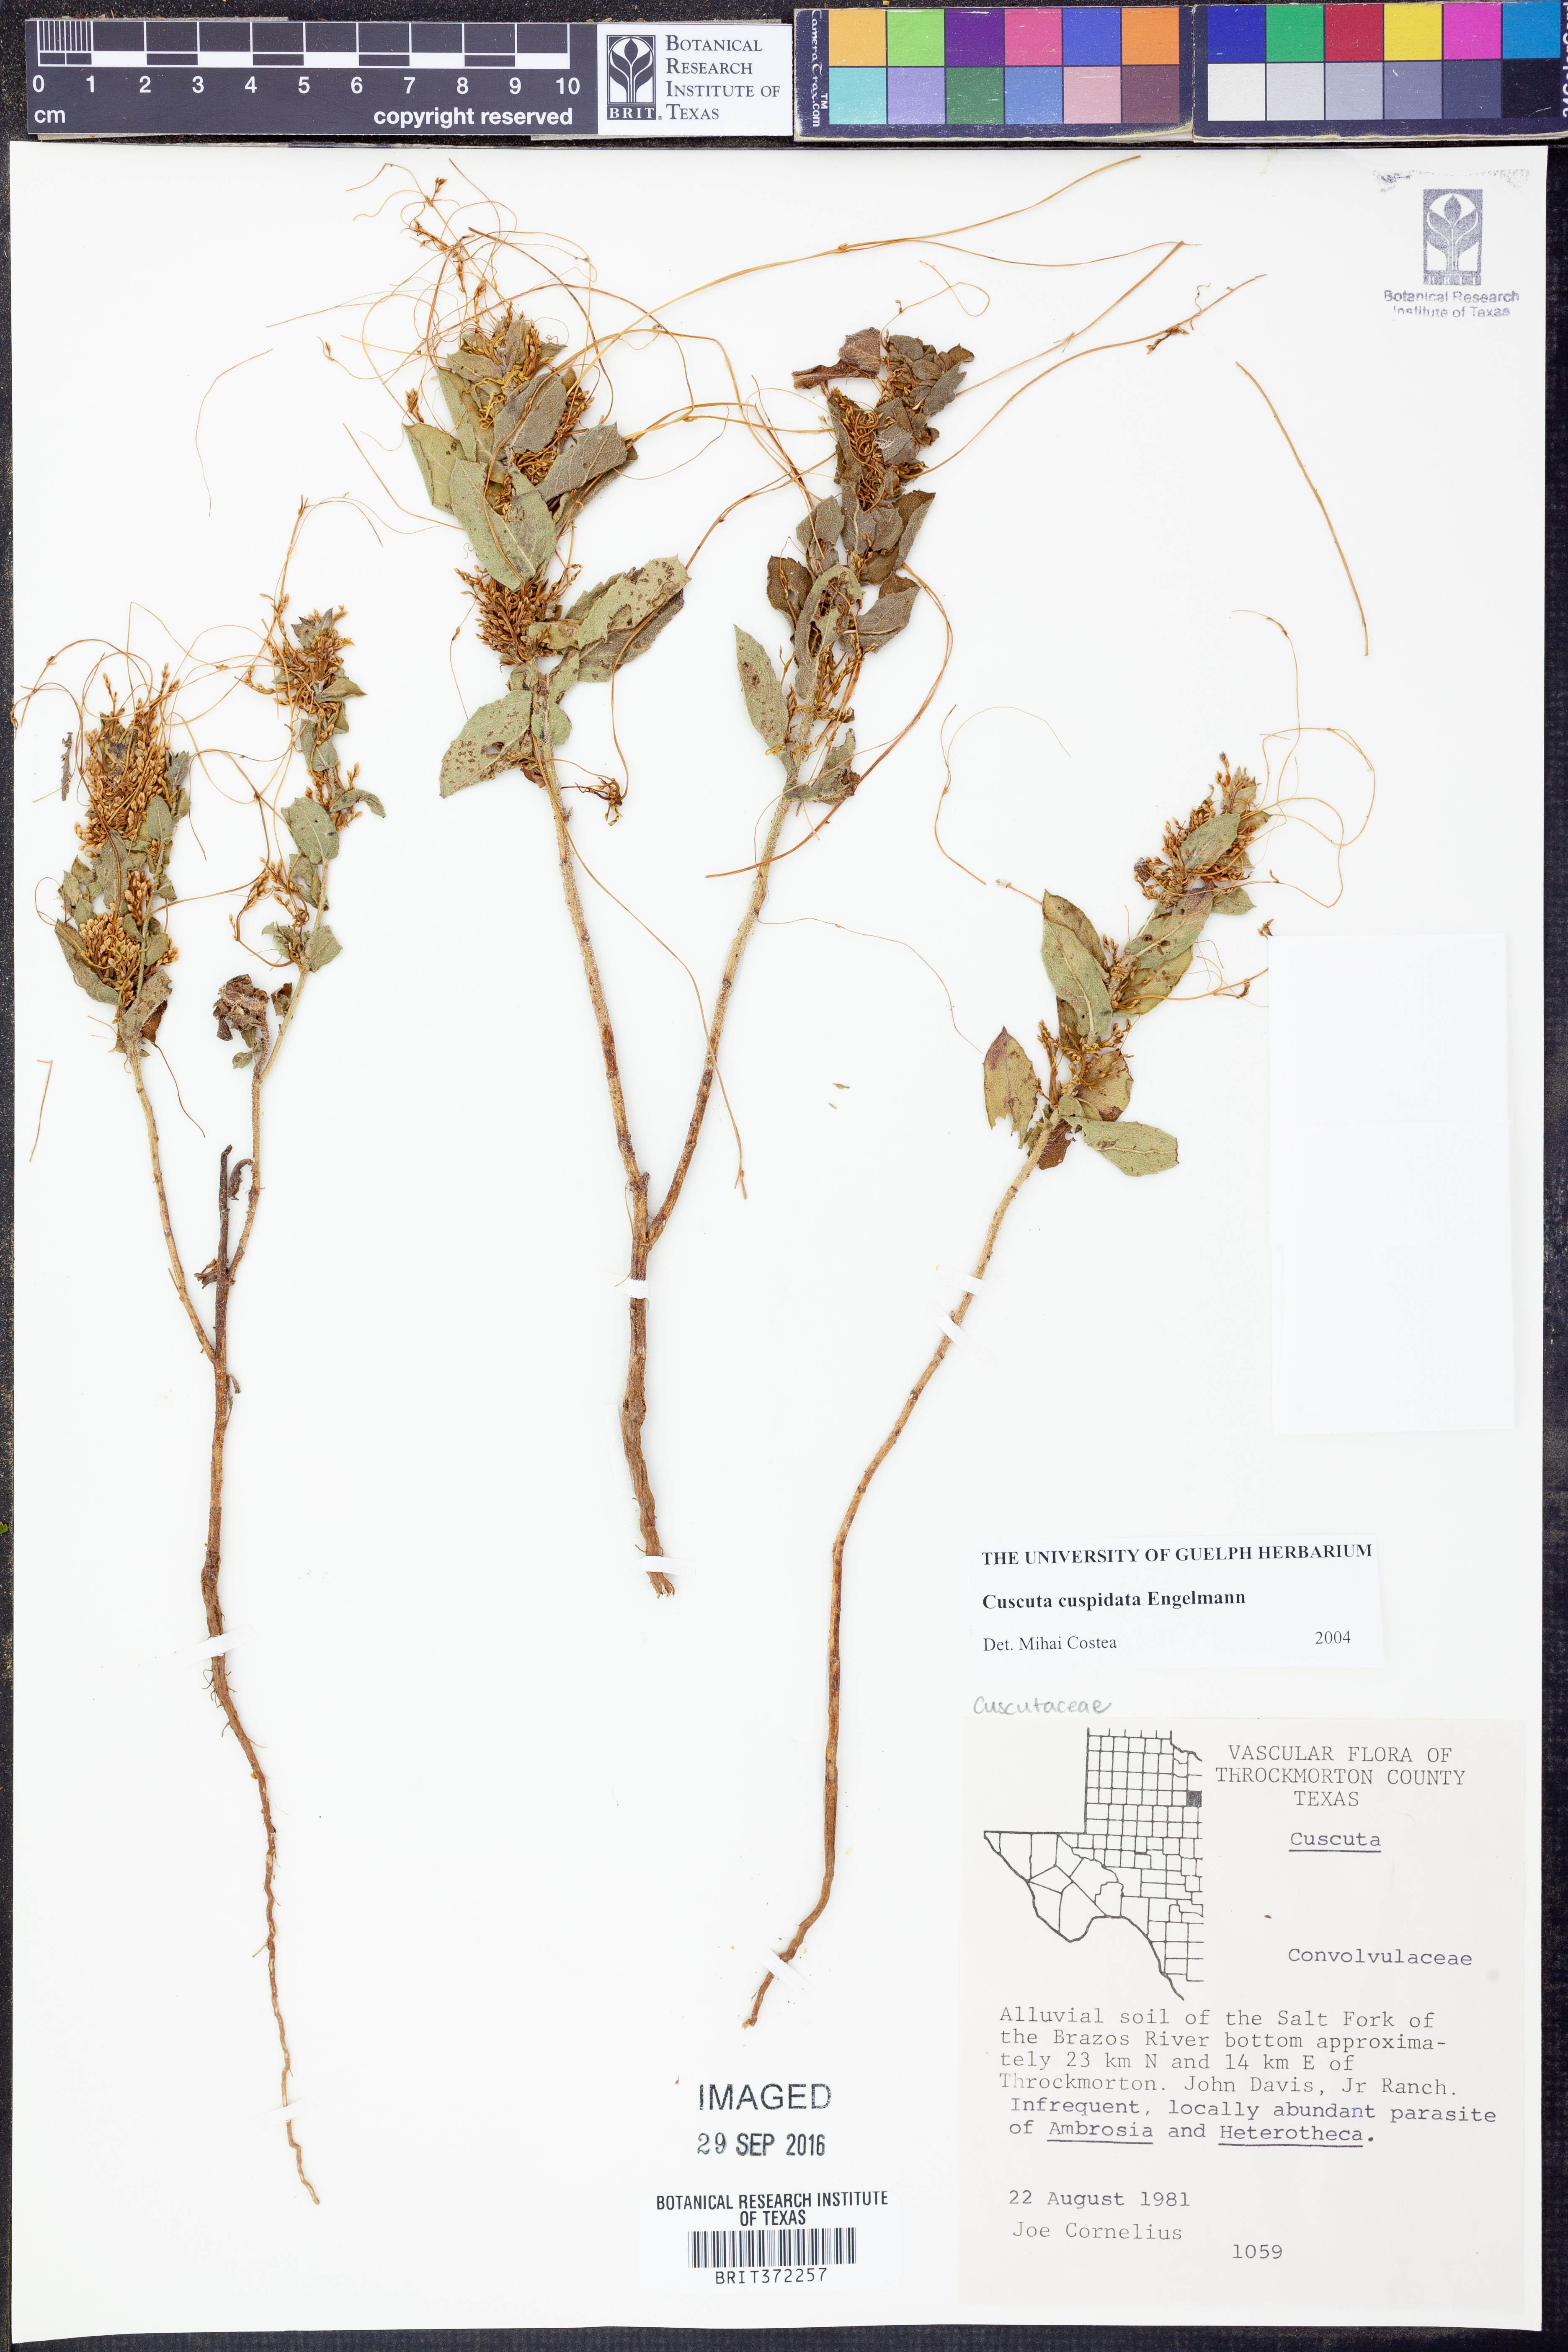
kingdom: Plantae
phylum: Tracheophyta
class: Magnoliopsida
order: Solanales
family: Convolvulaceae
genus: Cuscuta
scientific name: Cuscuta cuspidata
